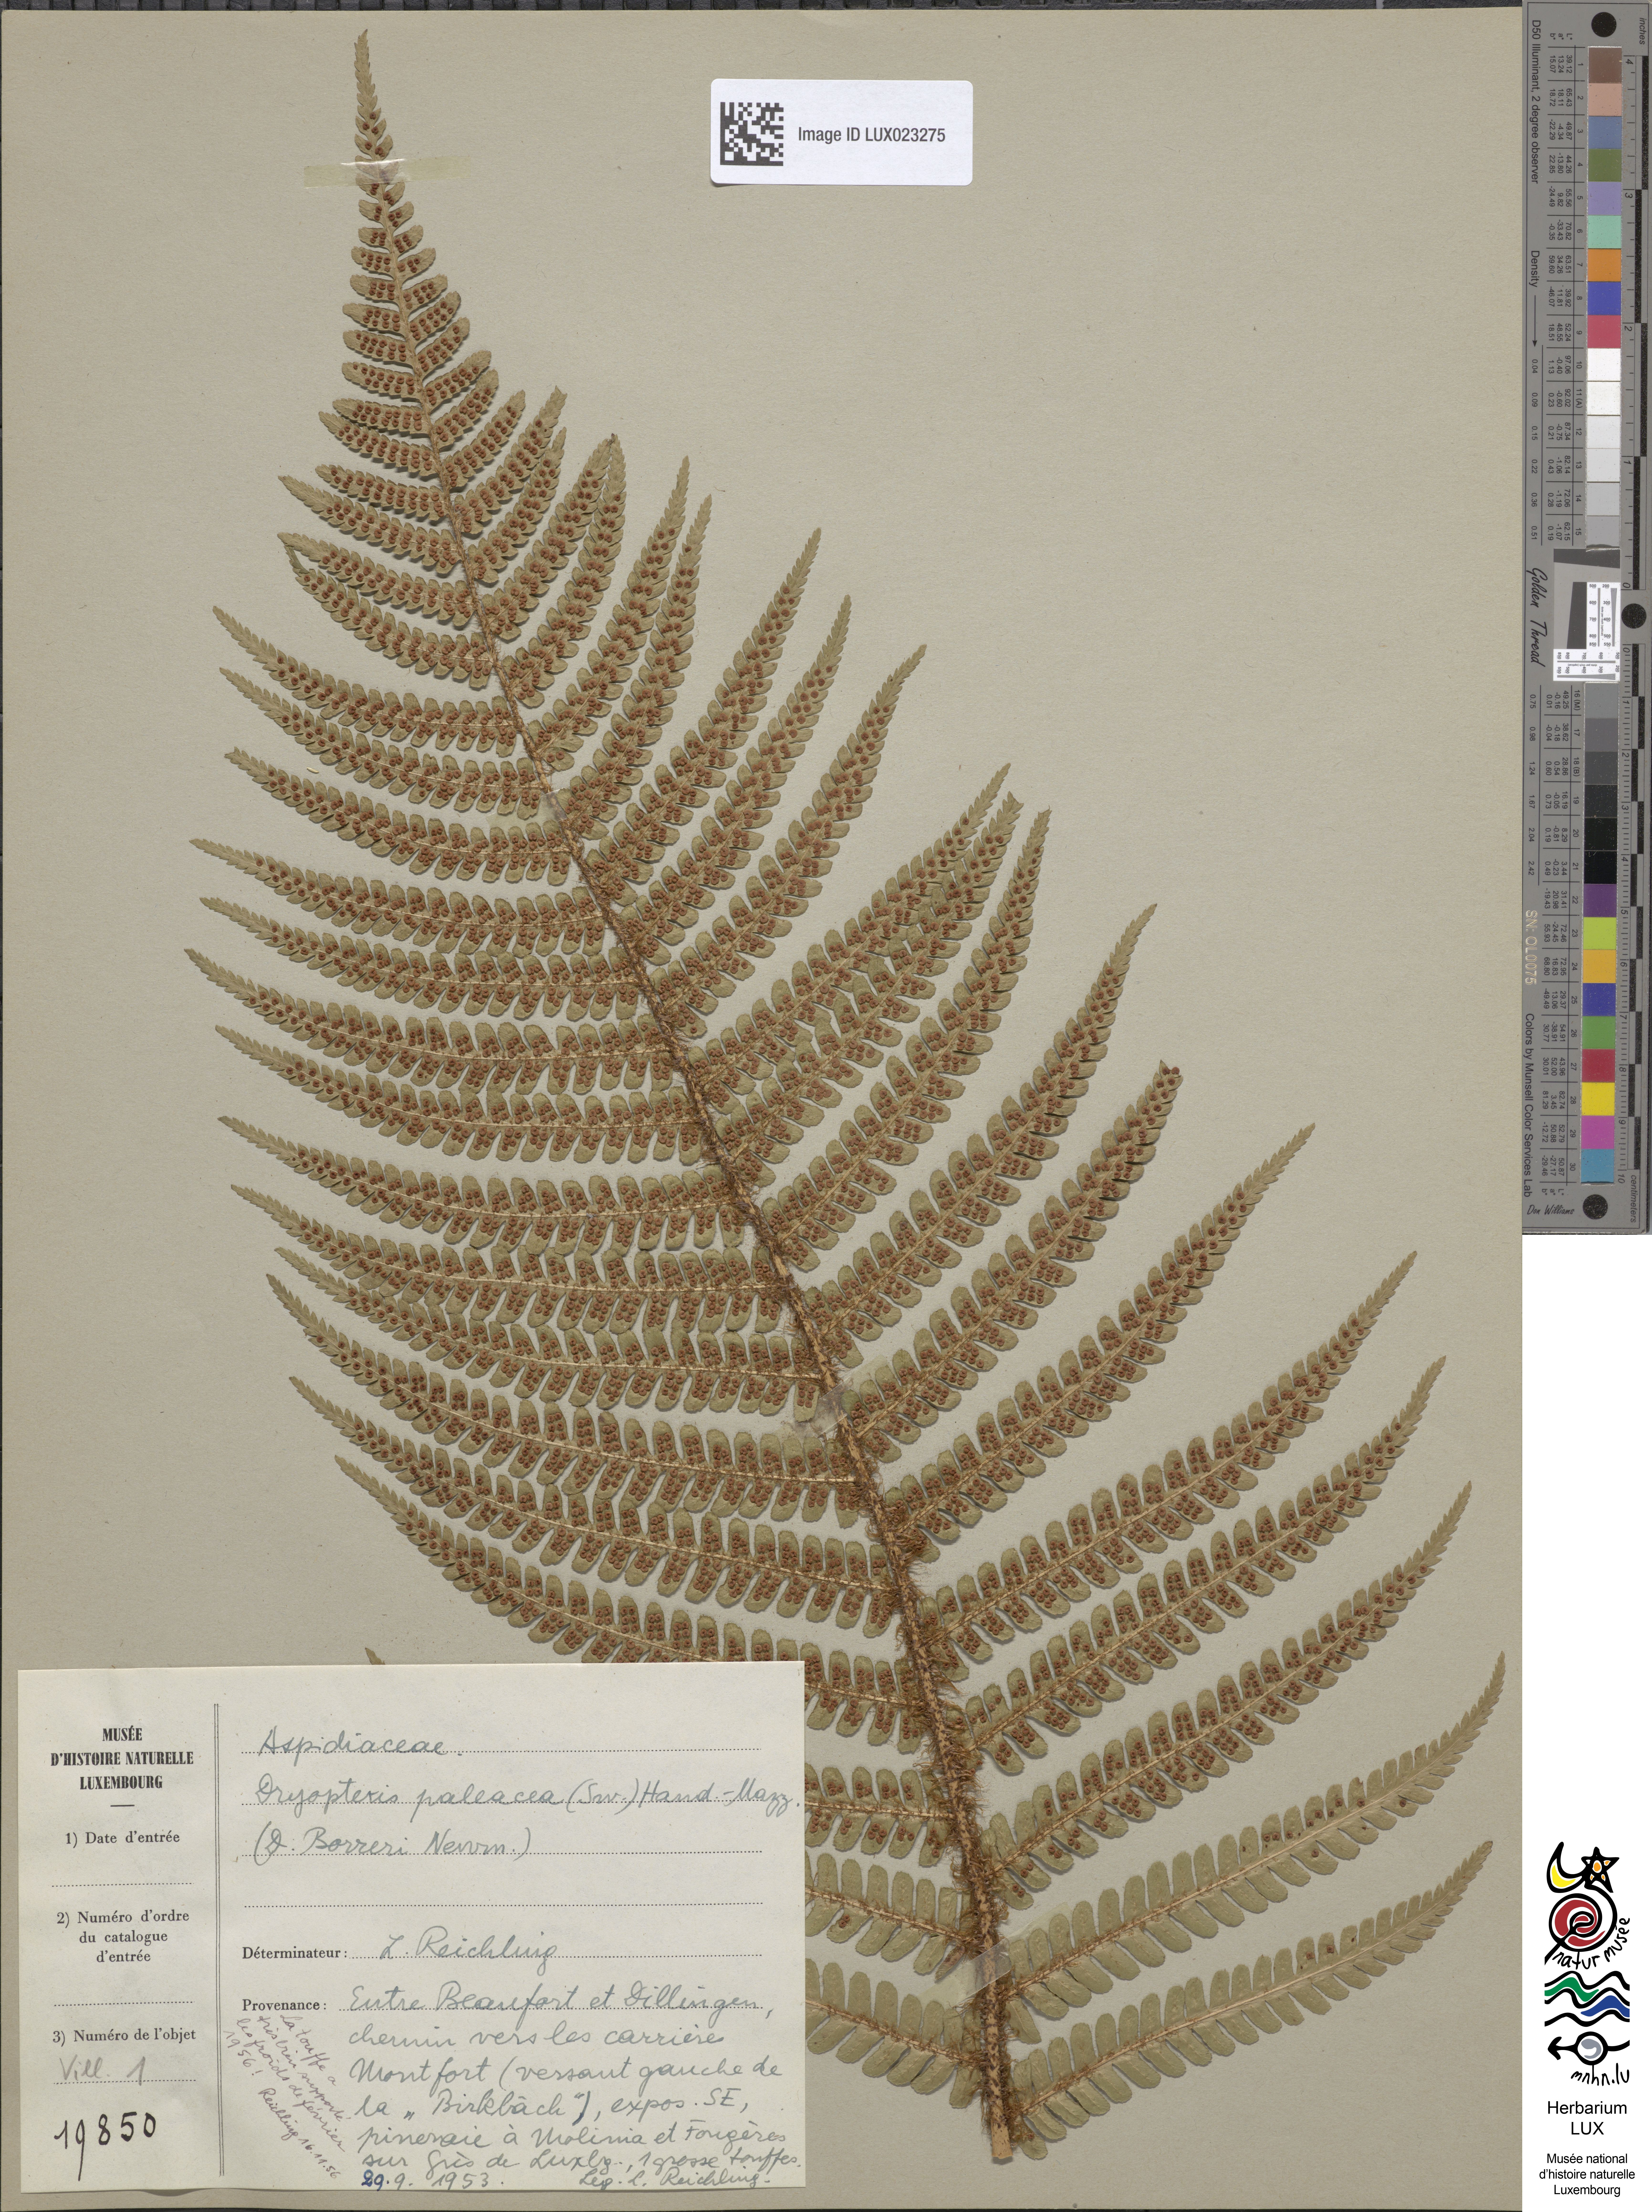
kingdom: Plantae
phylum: Tracheophyta
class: Polypodiopsida
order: Polypodiales
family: Dryopteridaceae
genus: Dryopteris
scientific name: Dryopteris borreri
